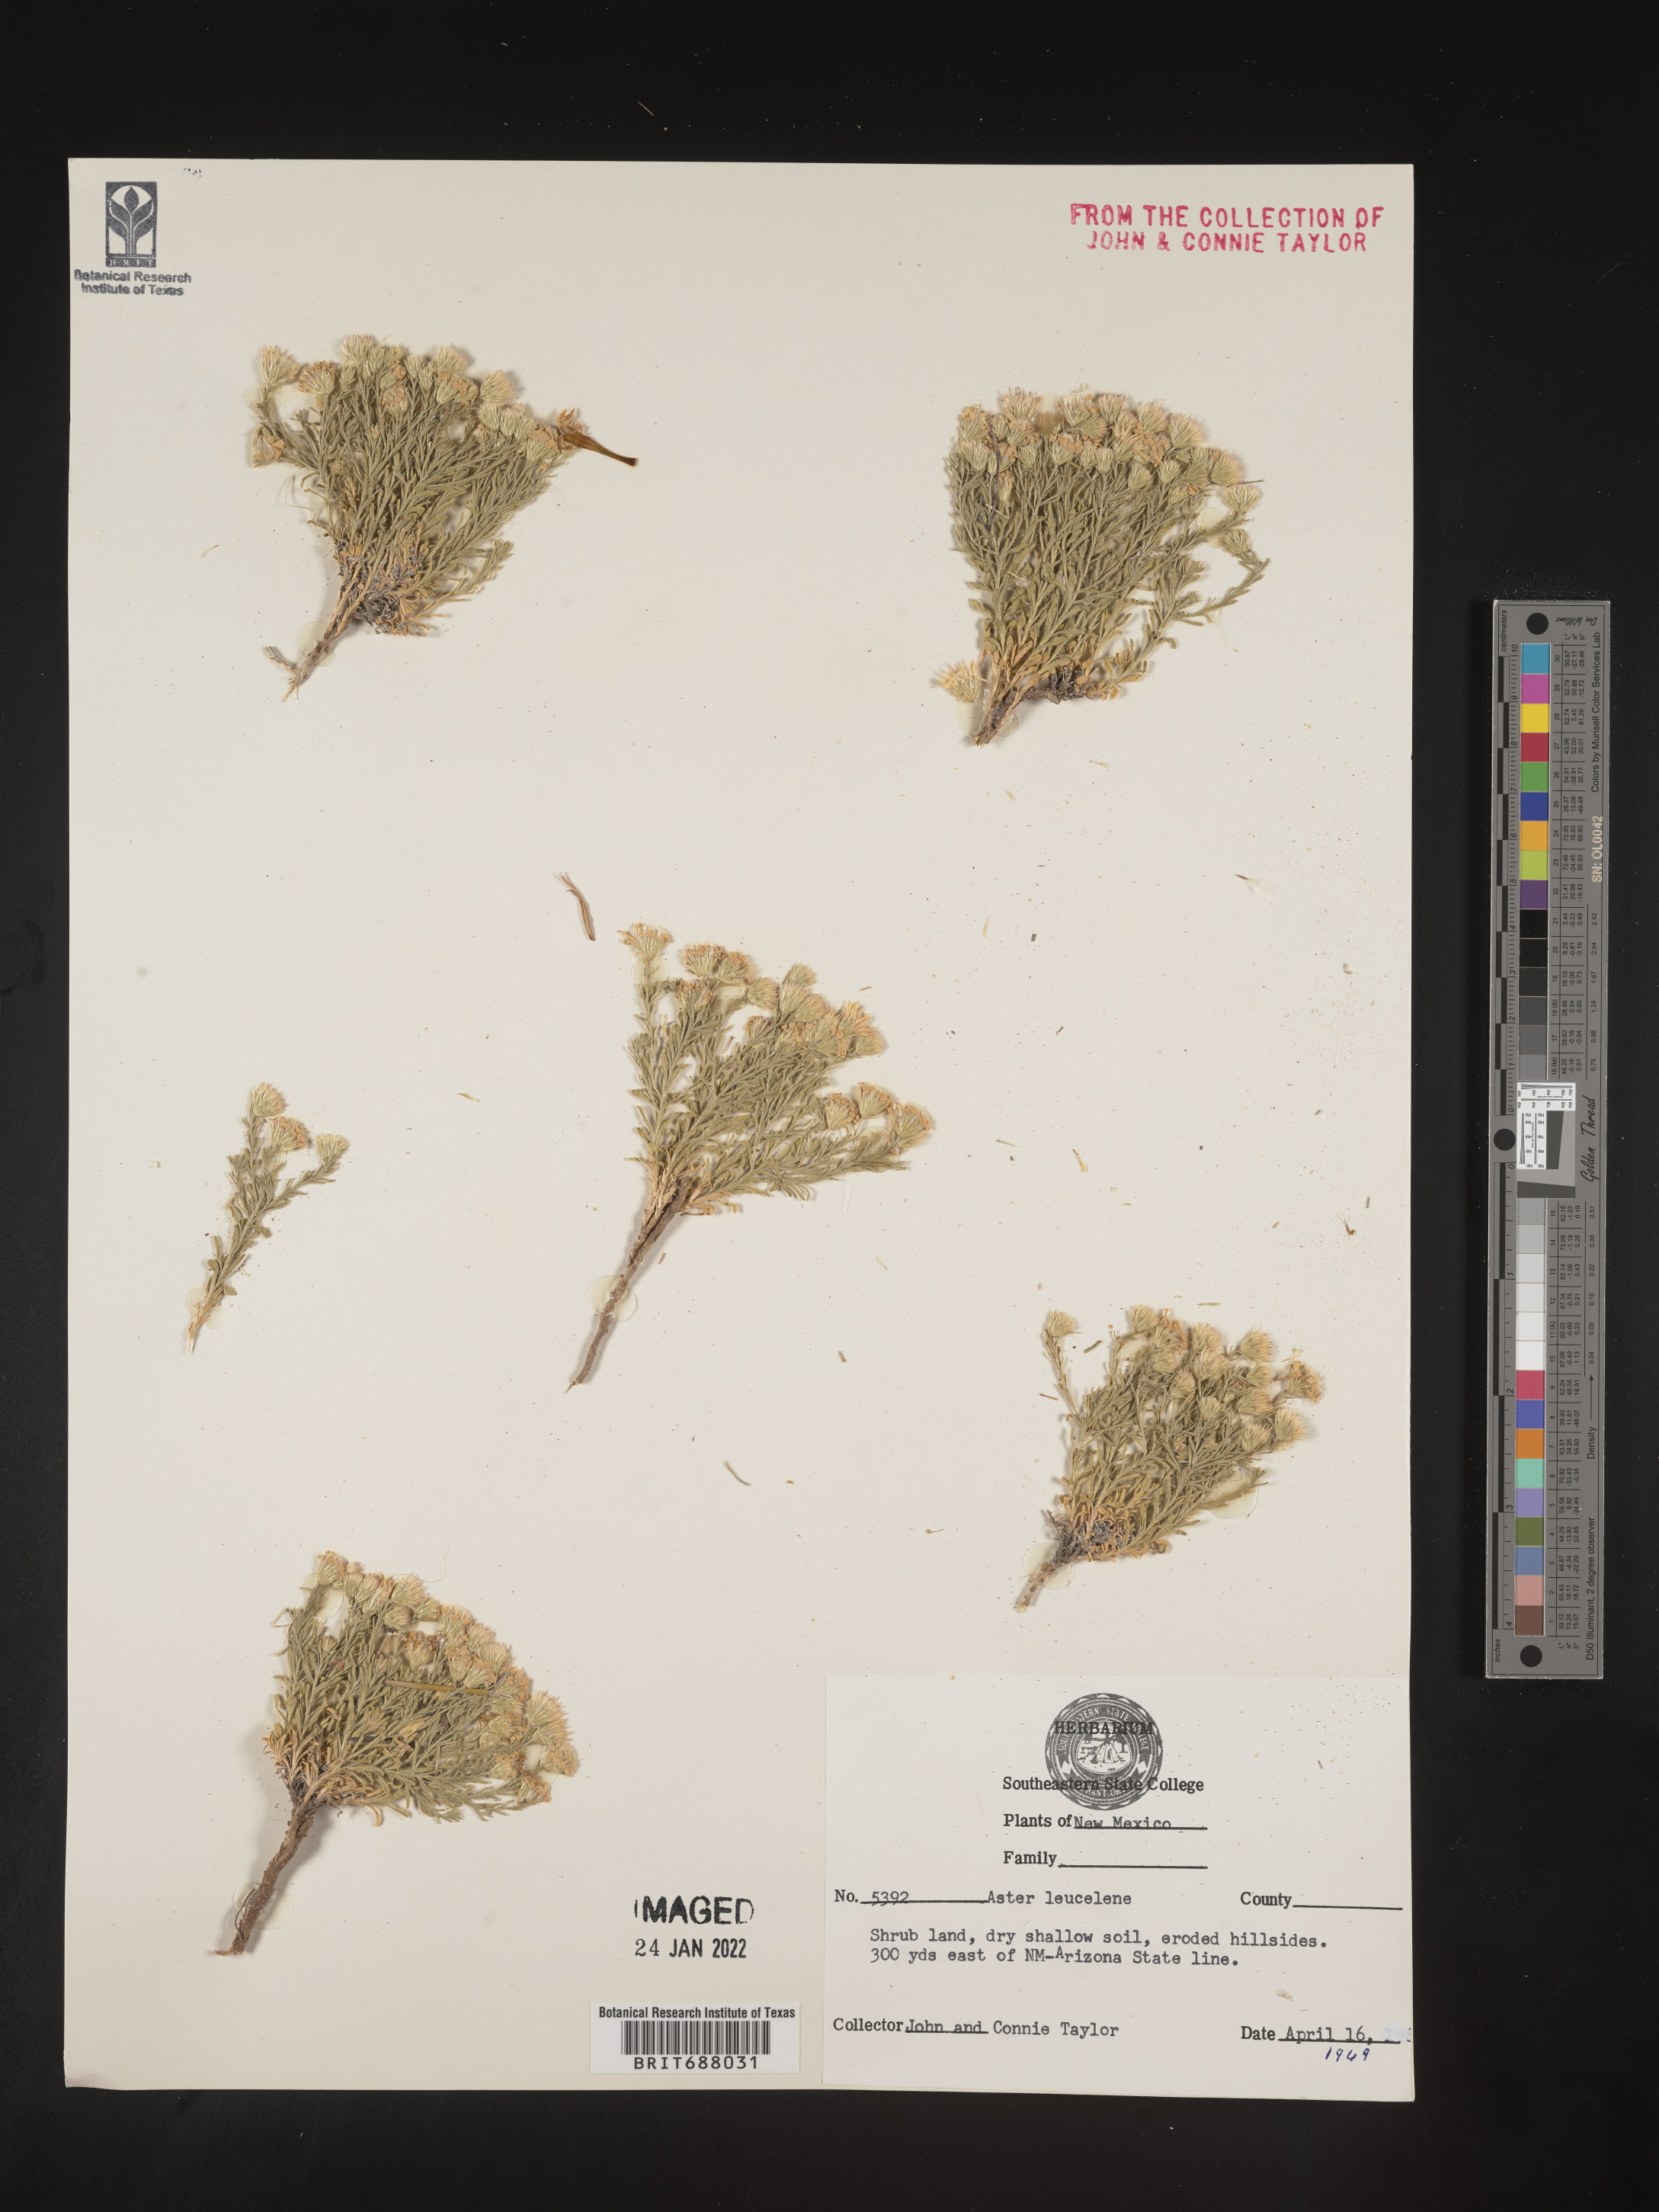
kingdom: Plantae
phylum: Tracheophyta
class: Magnoliopsida
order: Asterales
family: Asteraceae
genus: Chaetopappa
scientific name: Chaetopappa ericoides
